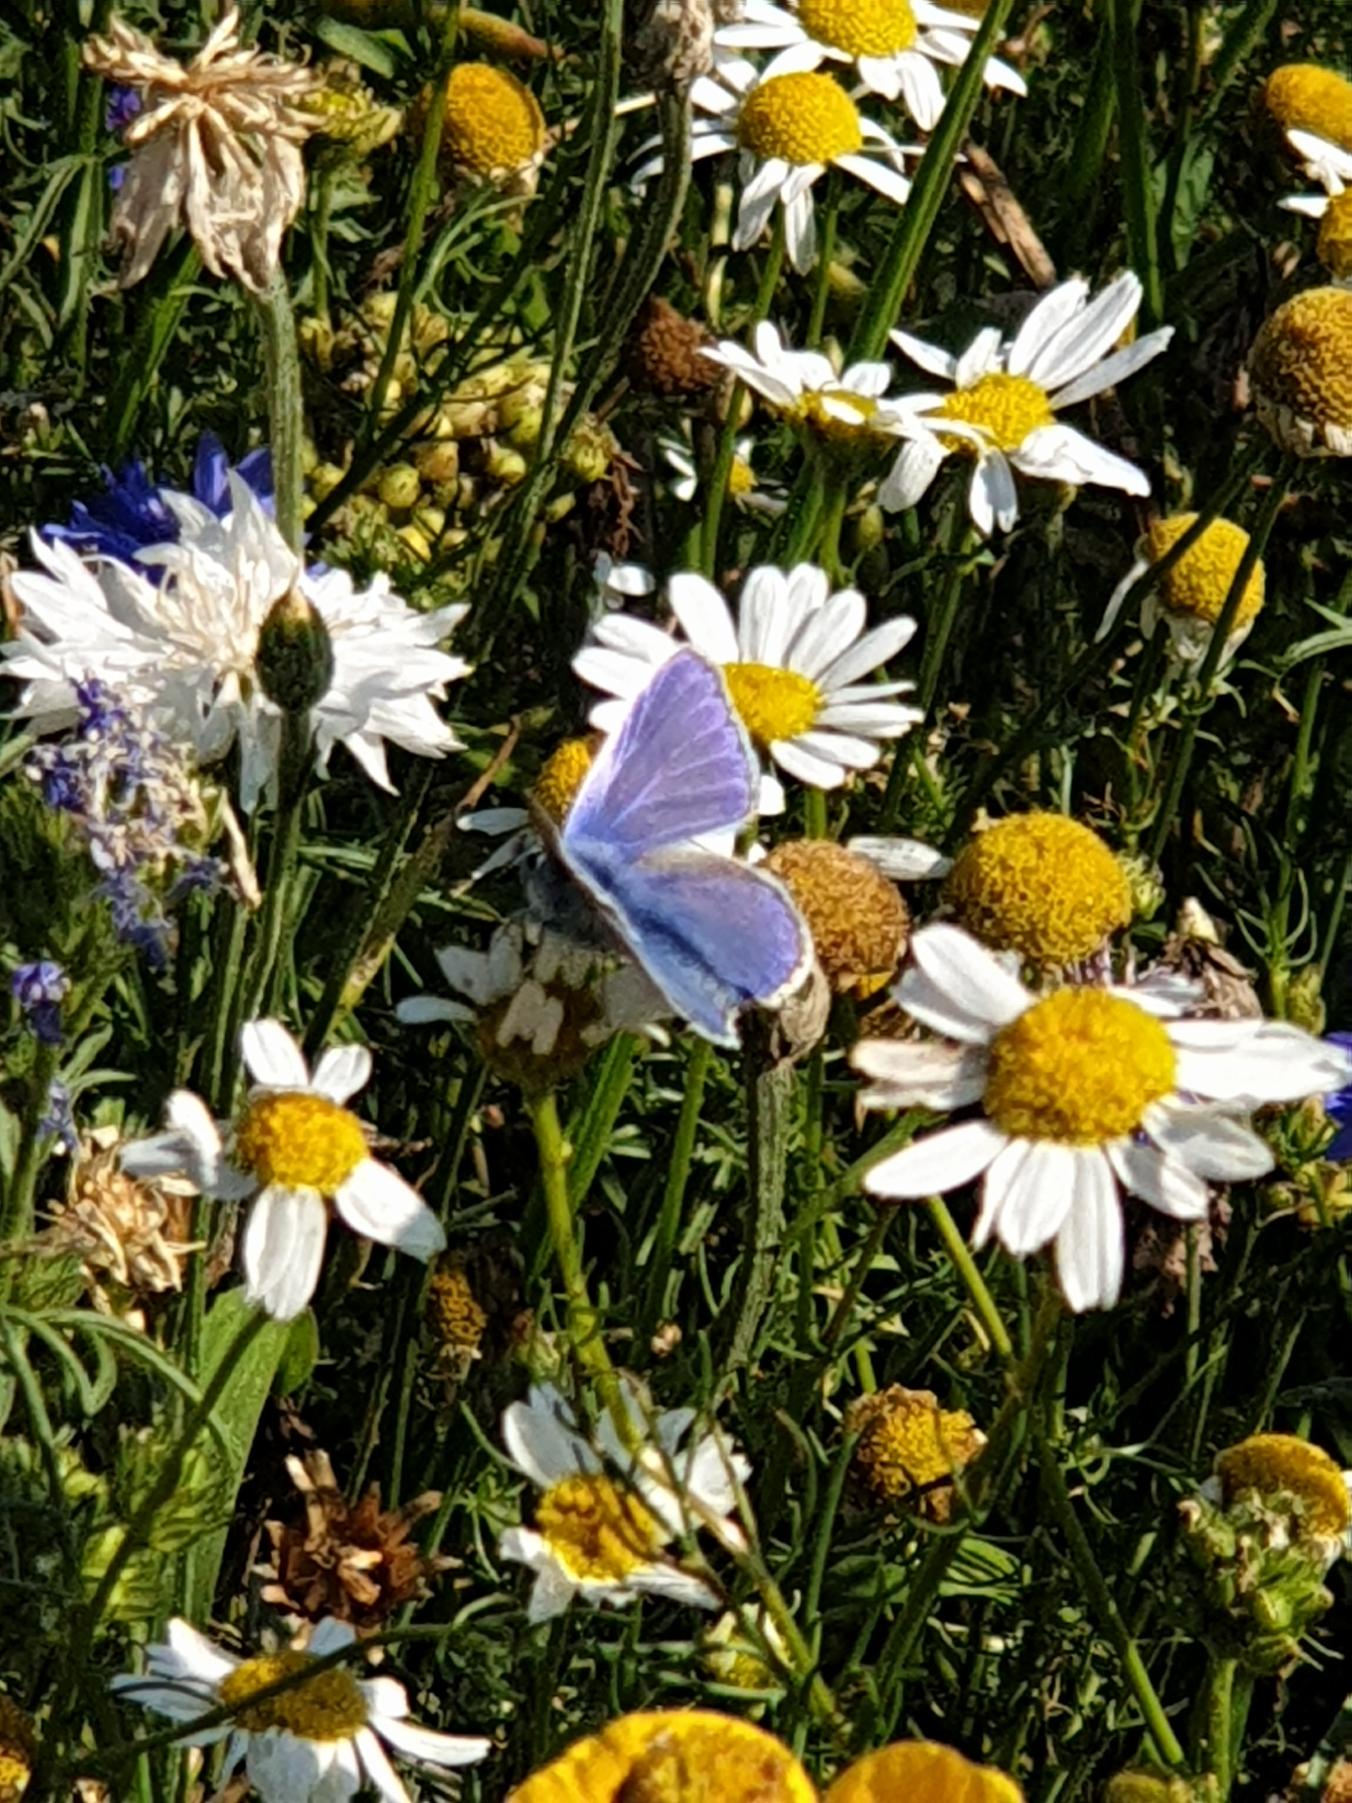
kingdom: Animalia
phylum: Arthropoda
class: Insecta
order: Lepidoptera
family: Lycaenidae
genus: Polyommatus
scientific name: Polyommatus icarus
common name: Almindelig blåfugl
